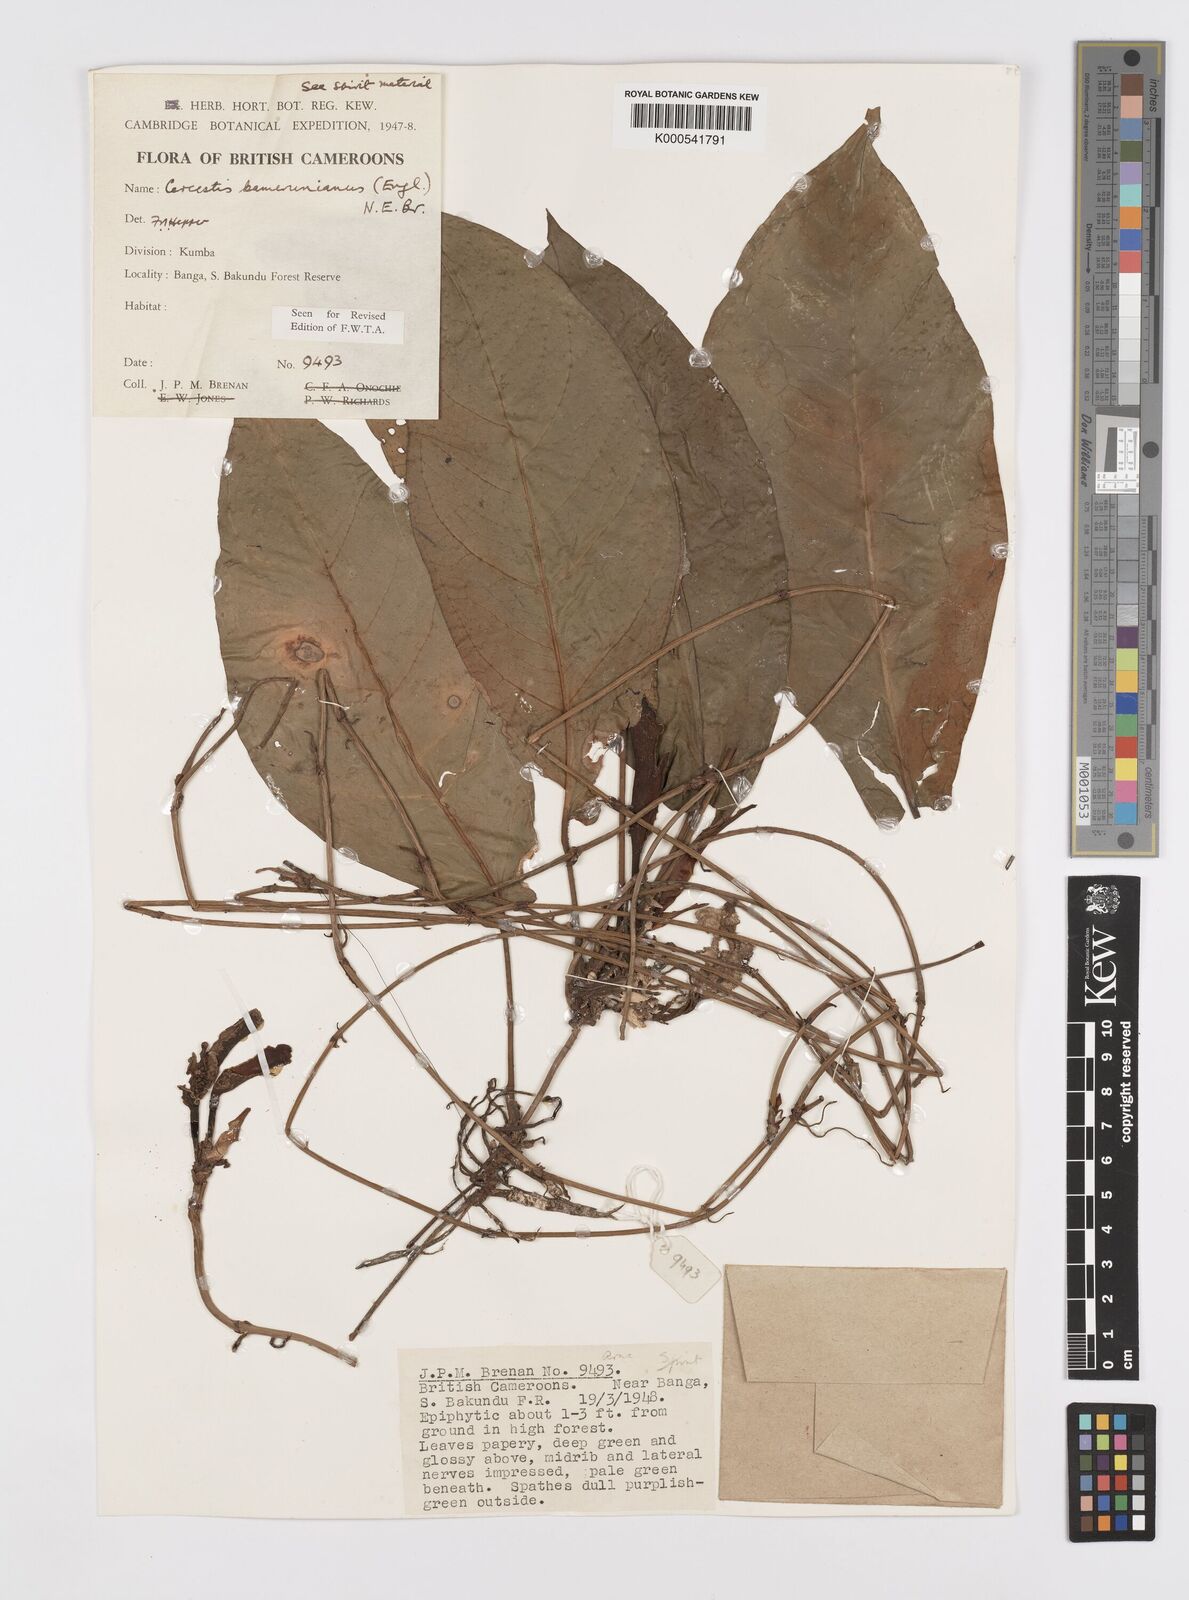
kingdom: Plantae
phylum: Tracheophyta
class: Liliopsida
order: Alismatales
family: Araceae
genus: Cercestis
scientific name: Cercestis kamerunianus
